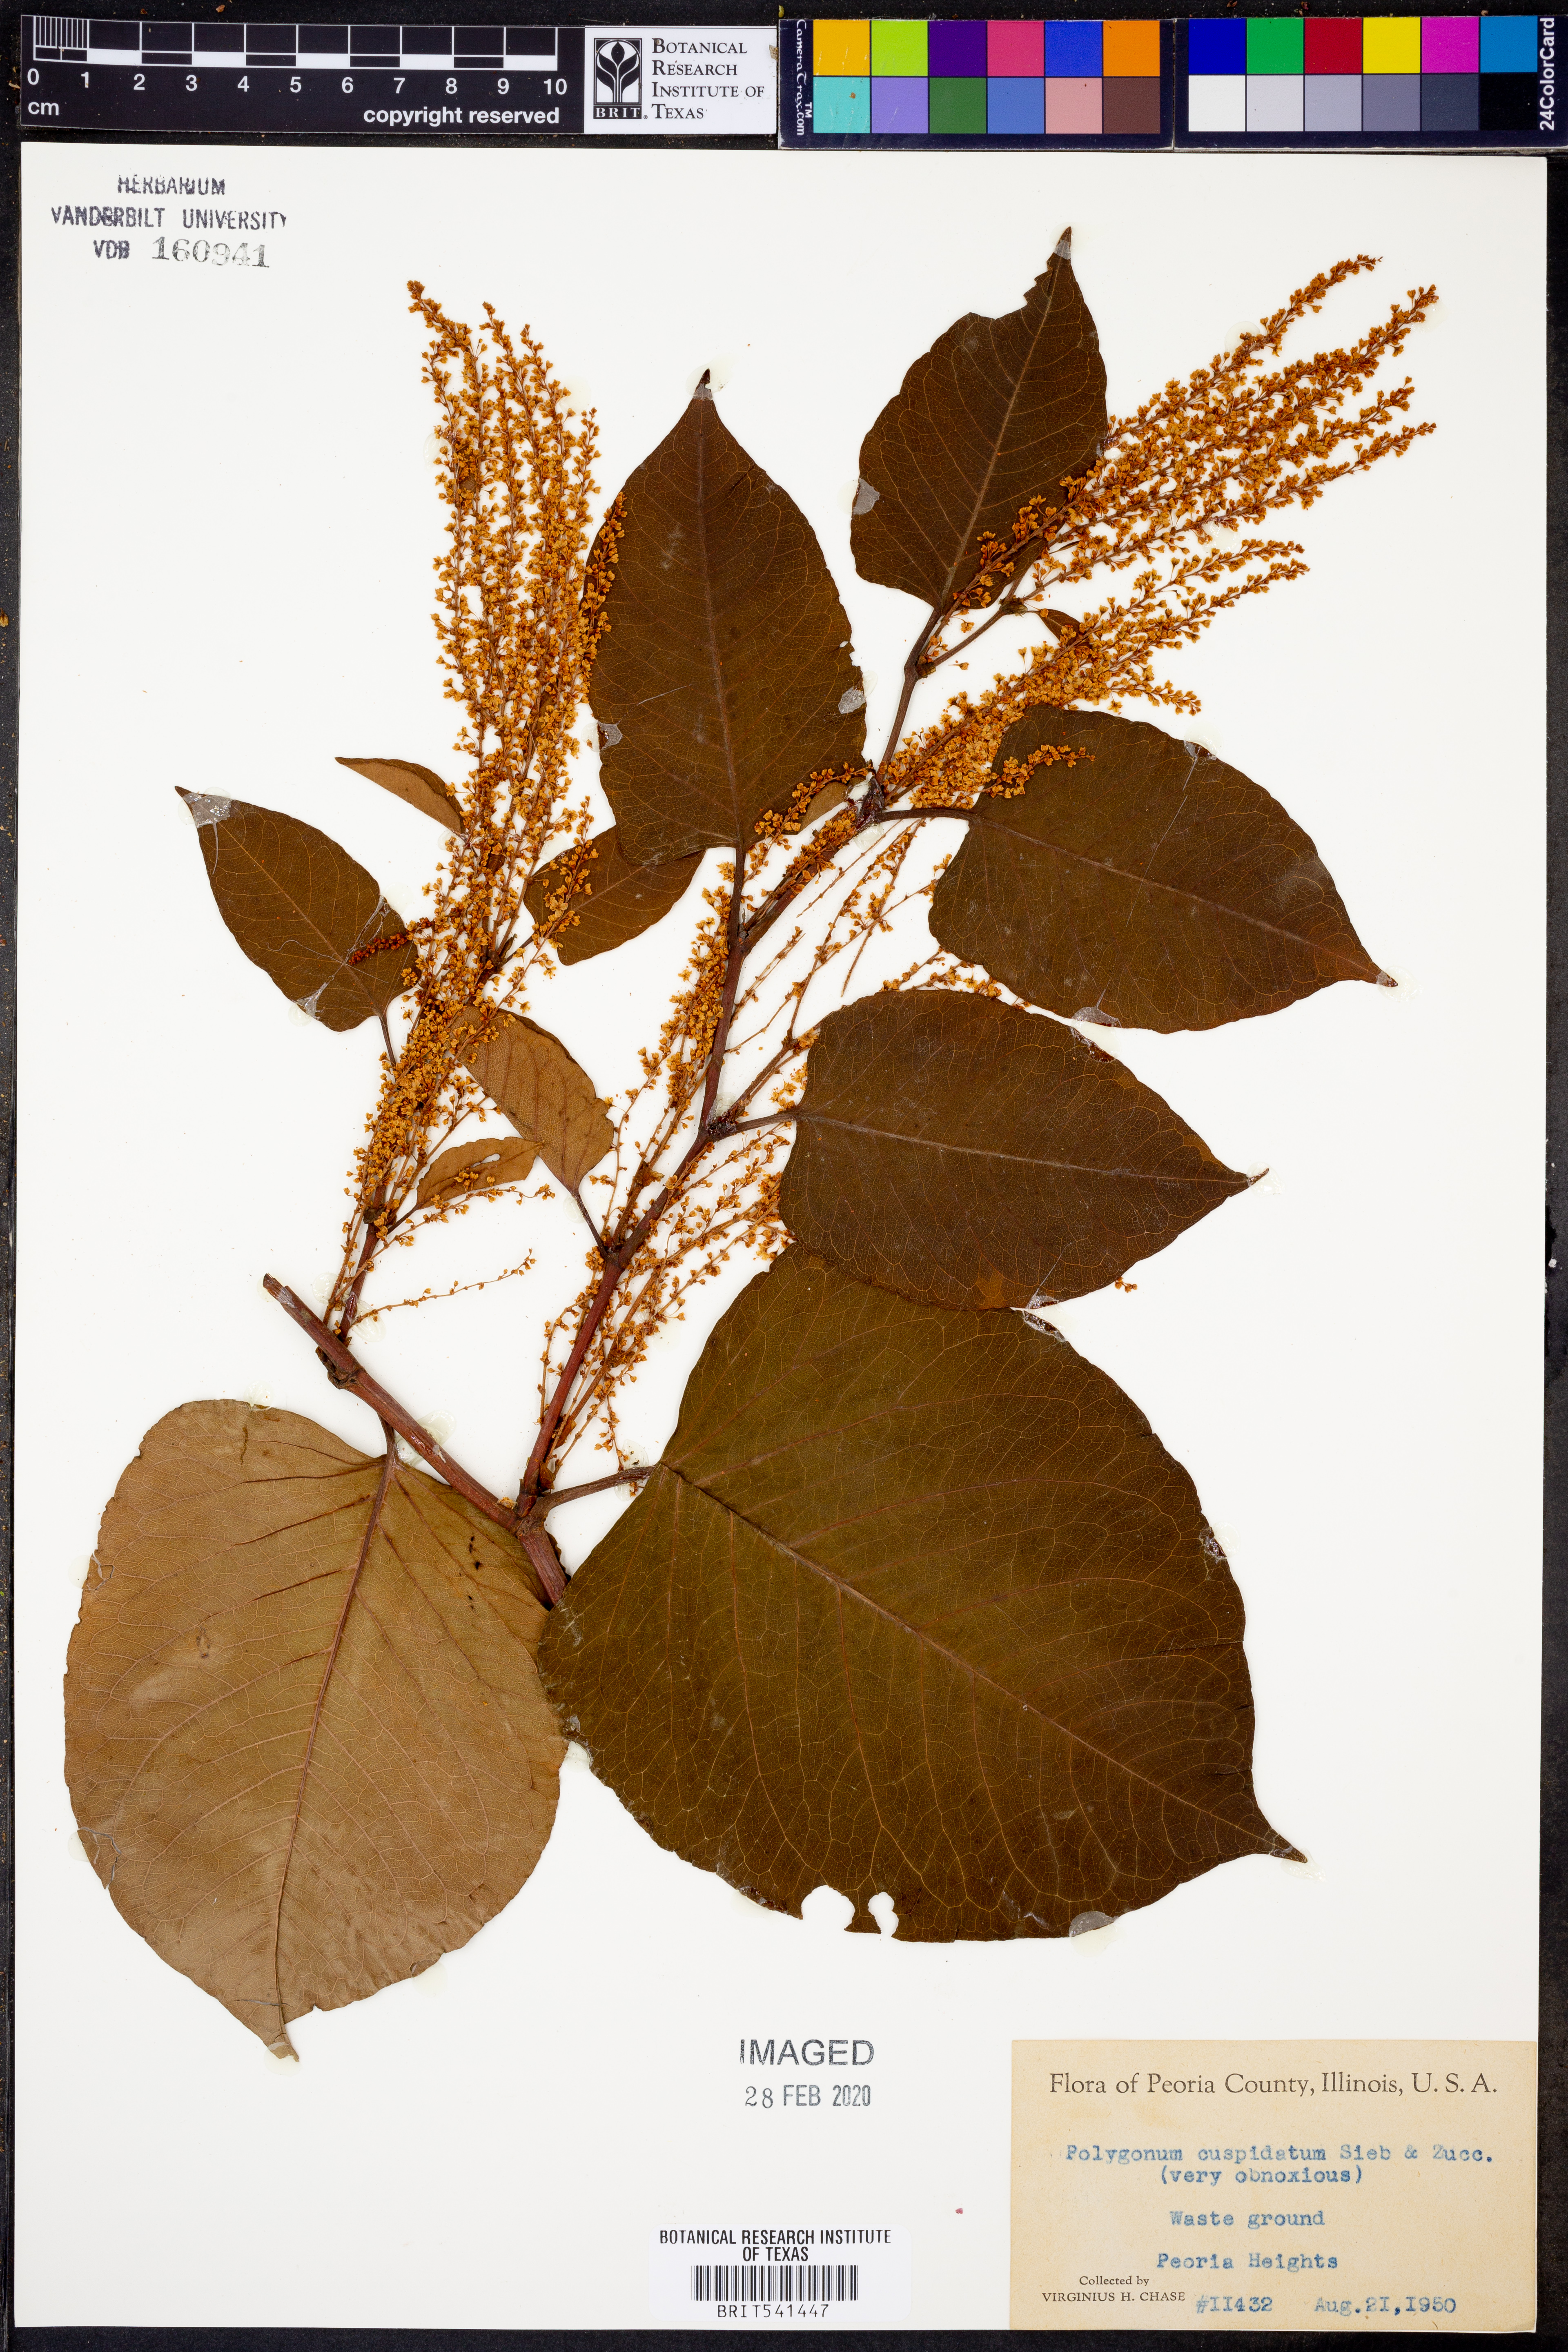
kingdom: Plantae
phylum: Tracheophyta
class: Magnoliopsida
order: Caryophyllales
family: Polygonaceae
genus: Reynoutria
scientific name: Reynoutria japonica
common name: Japanese knotweed
